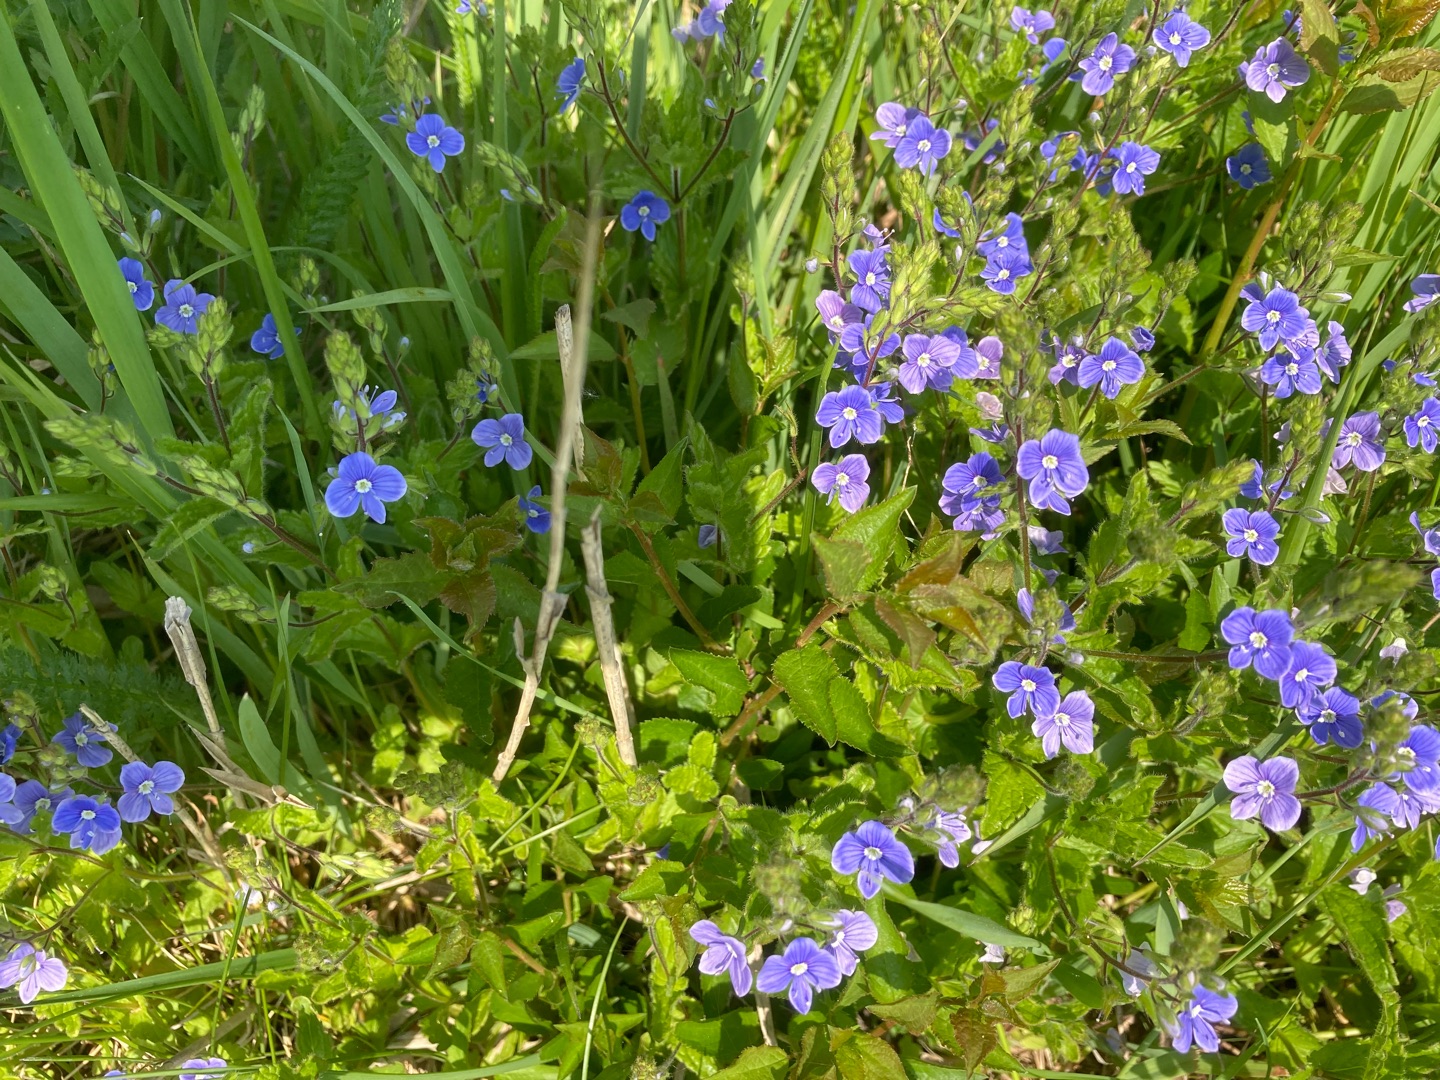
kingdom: Plantae
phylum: Tracheophyta
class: Magnoliopsida
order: Lamiales
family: Plantaginaceae
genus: Veronica
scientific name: Veronica chamaedrys
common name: Tveskægget ærenpris
